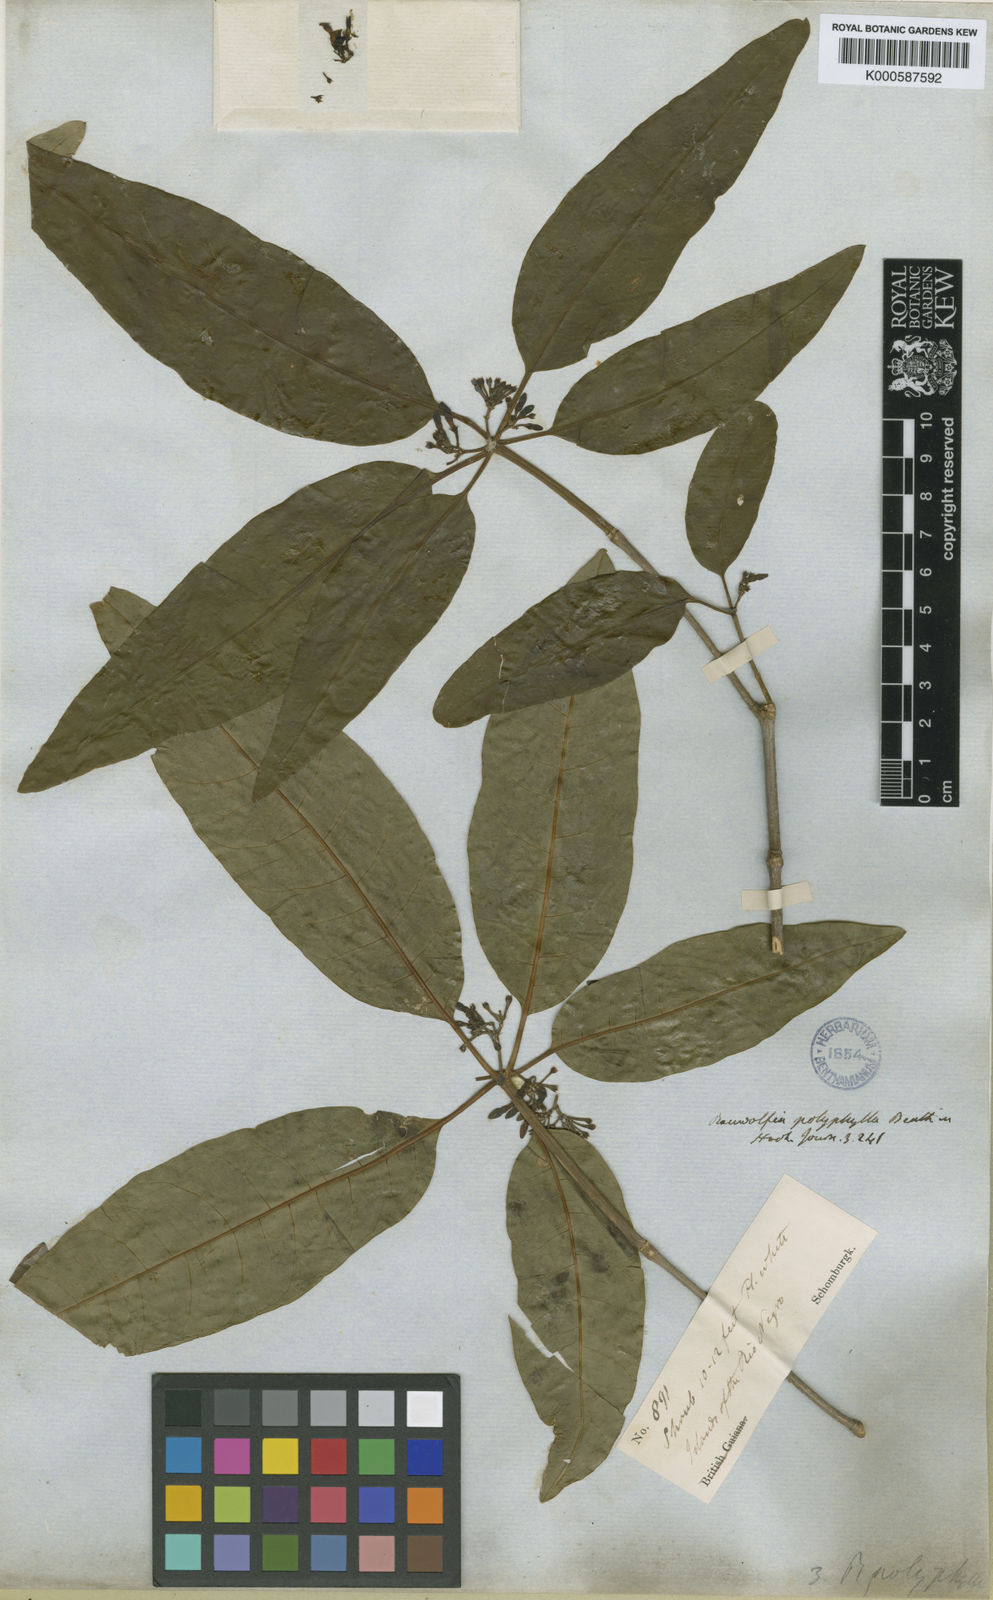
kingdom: Plantae
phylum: Tracheophyta
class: Magnoliopsida
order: Gentianales
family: Apocynaceae
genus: Rauvolfia
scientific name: Rauvolfia polyphylla
